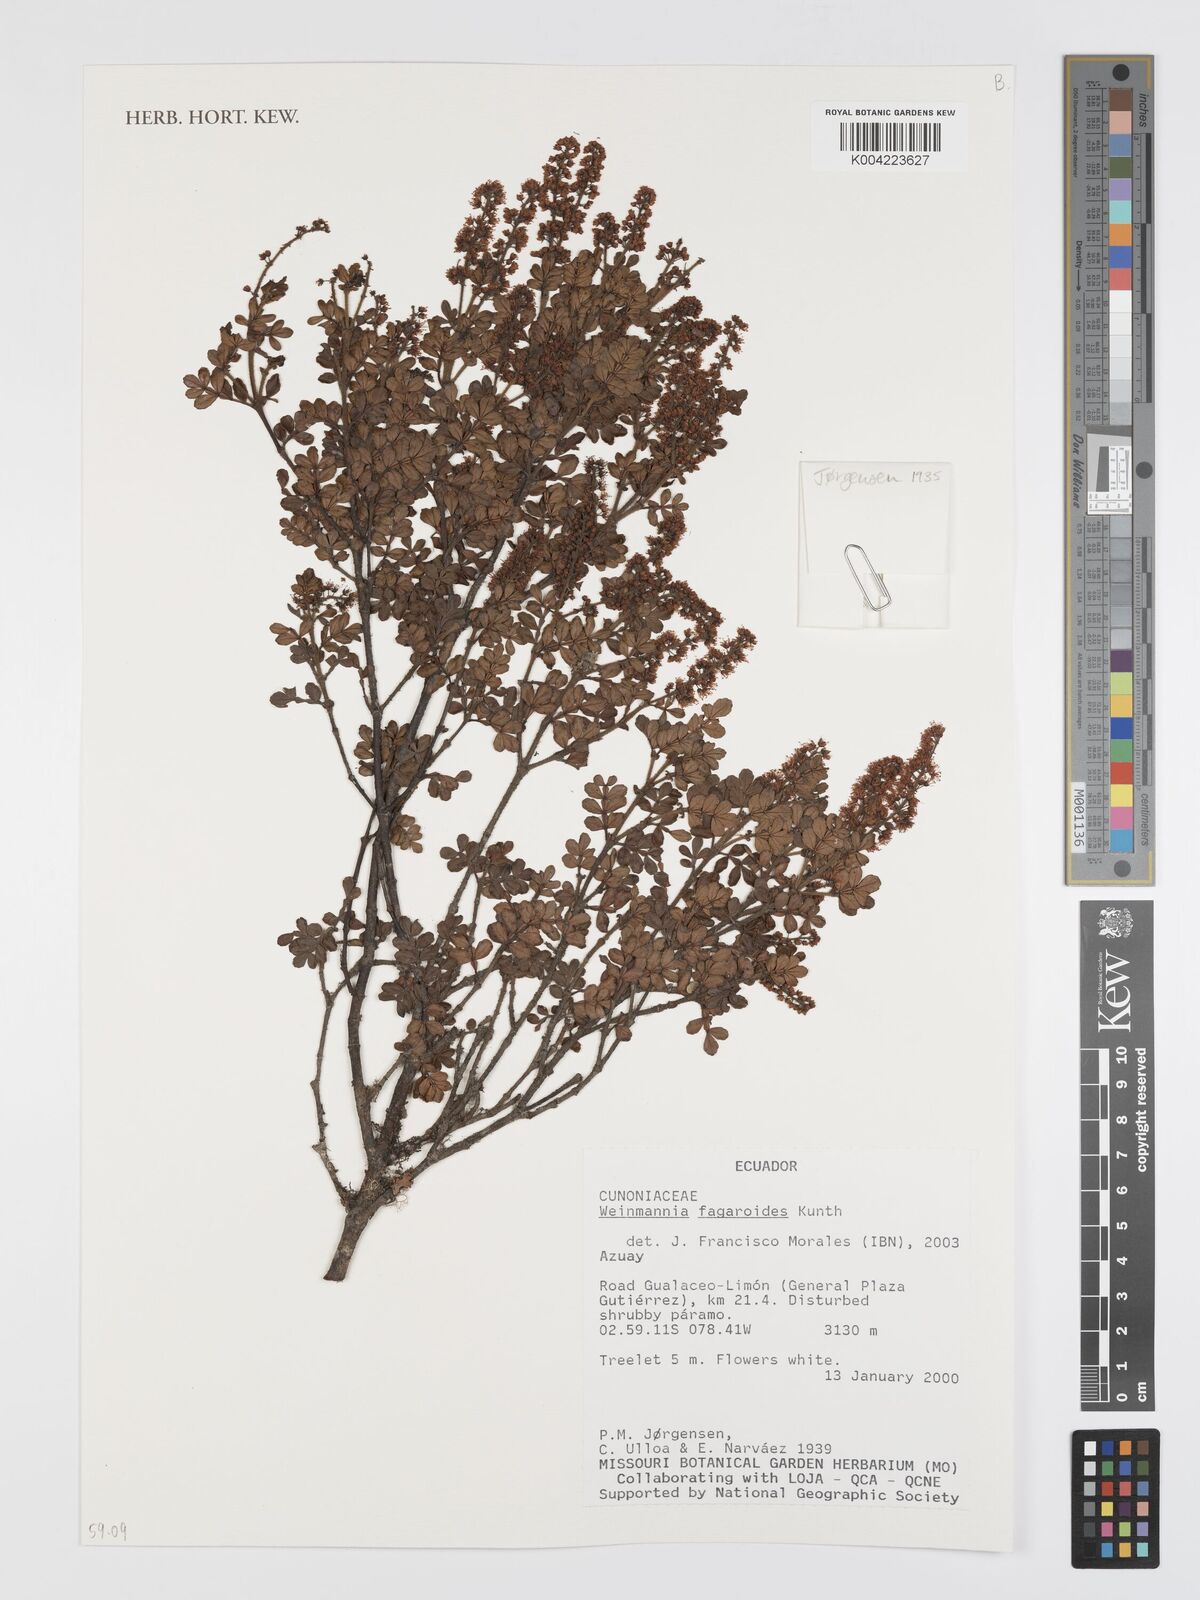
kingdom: Plantae
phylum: Tracheophyta
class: Magnoliopsida
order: Oxalidales
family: Cunoniaceae
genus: Weinmannia
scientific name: Weinmannia fagaroides
